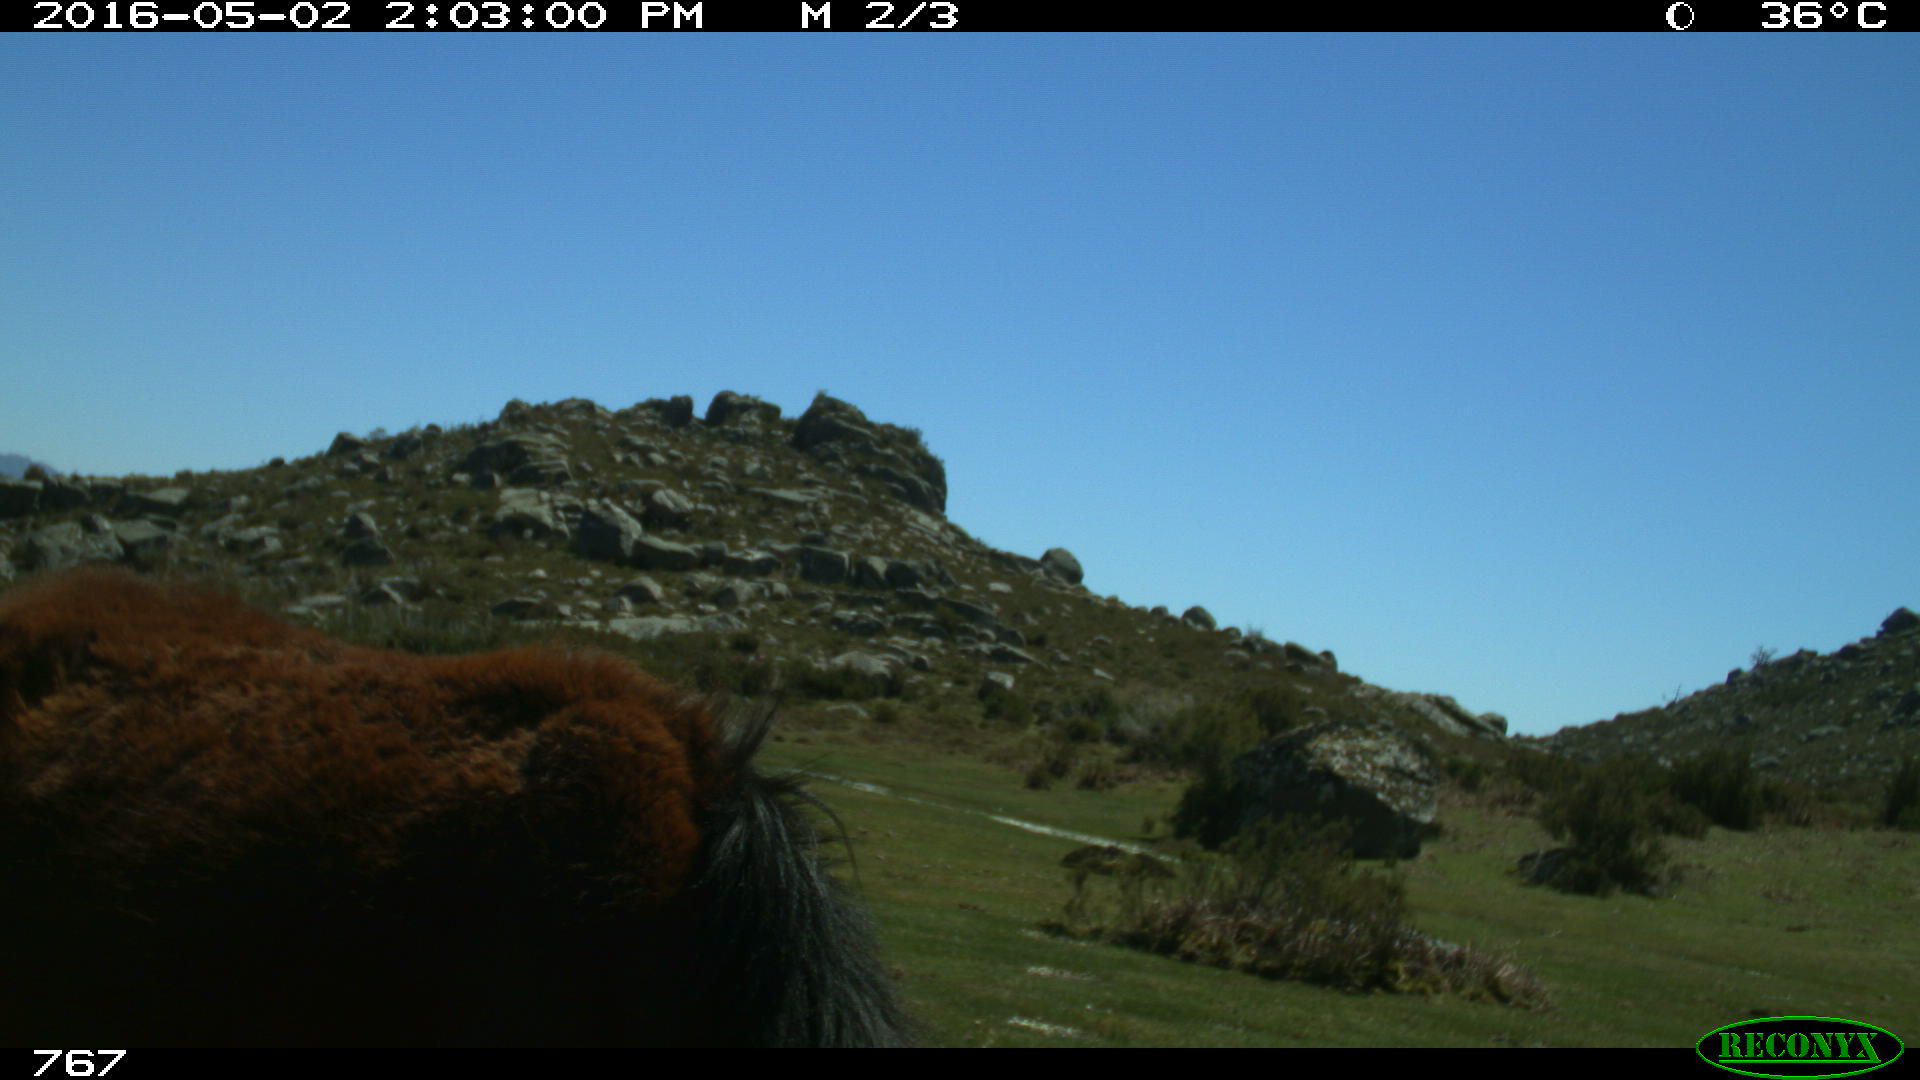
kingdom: Animalia
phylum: Chordata
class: Mammalia
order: Perissodactyla
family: Equidae
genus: Equus
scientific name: Equus caballus
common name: Horse
